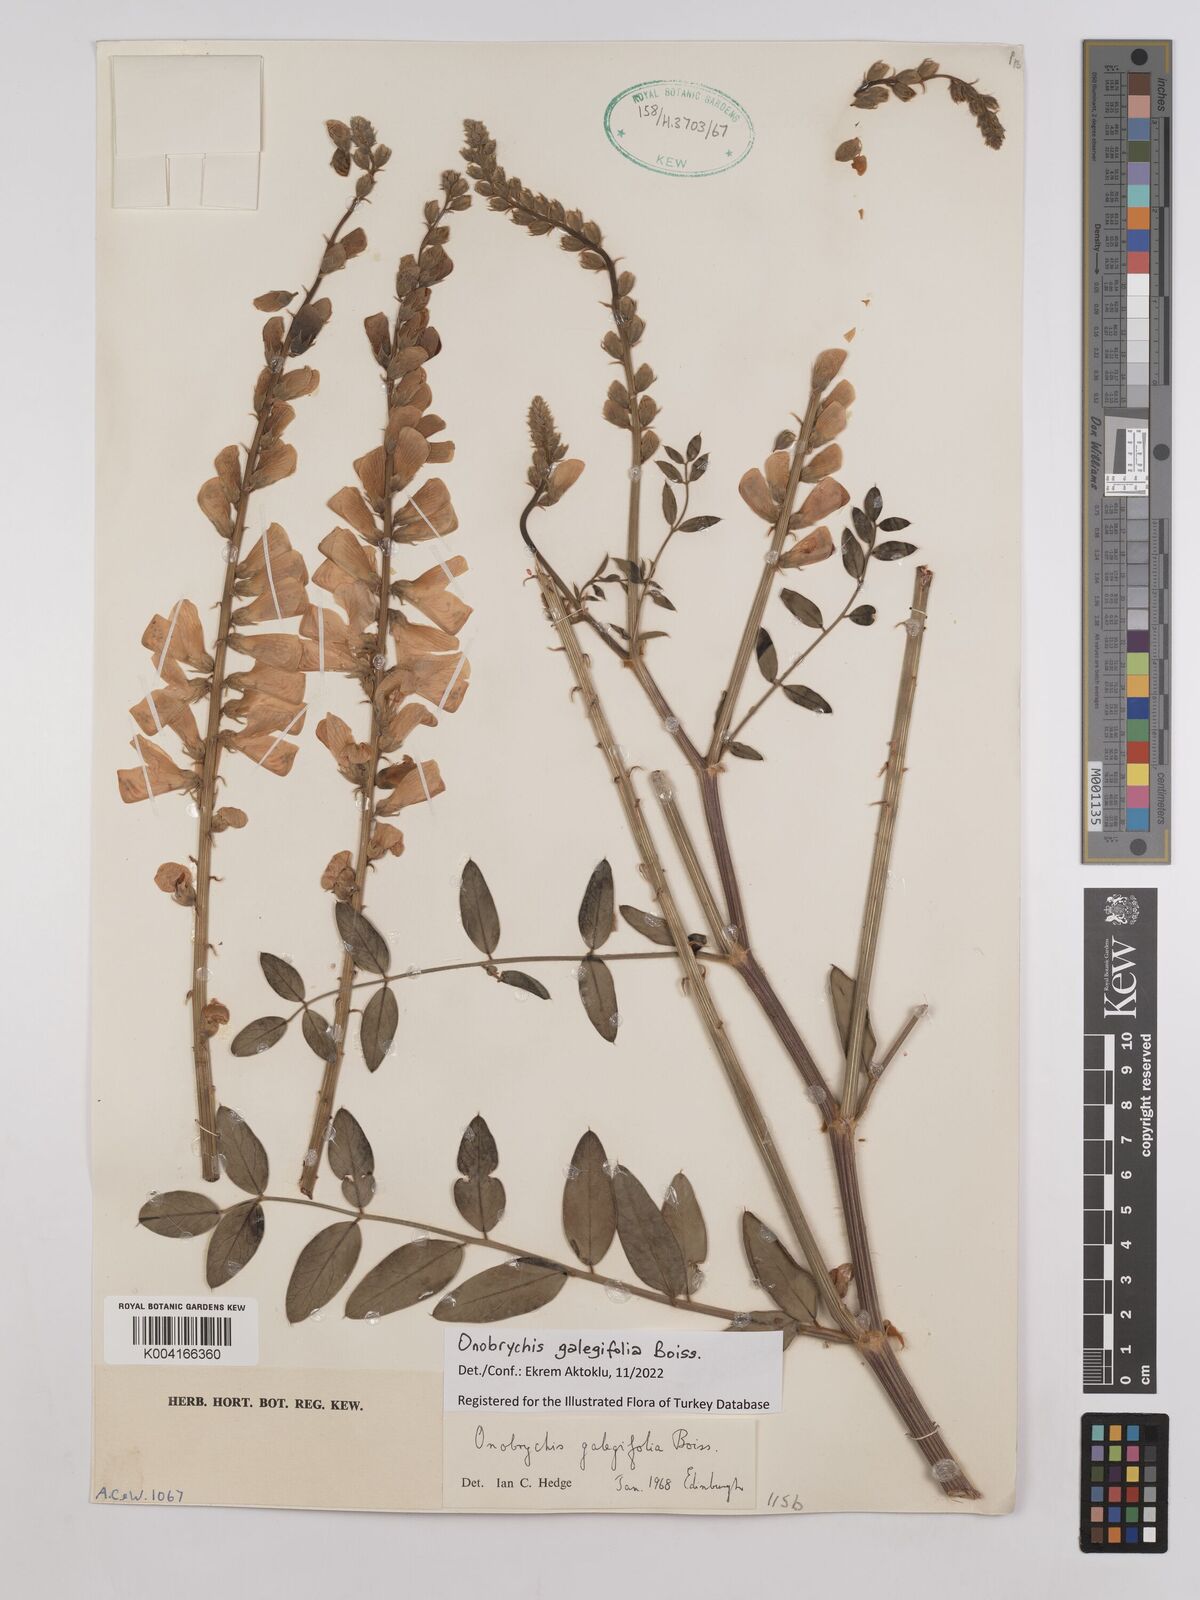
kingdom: Plantae
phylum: Tracheophyta
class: Magnoliopsida
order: Fabales
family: Fabaceae
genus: Onobrychis
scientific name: Onobrychis galegifolia
